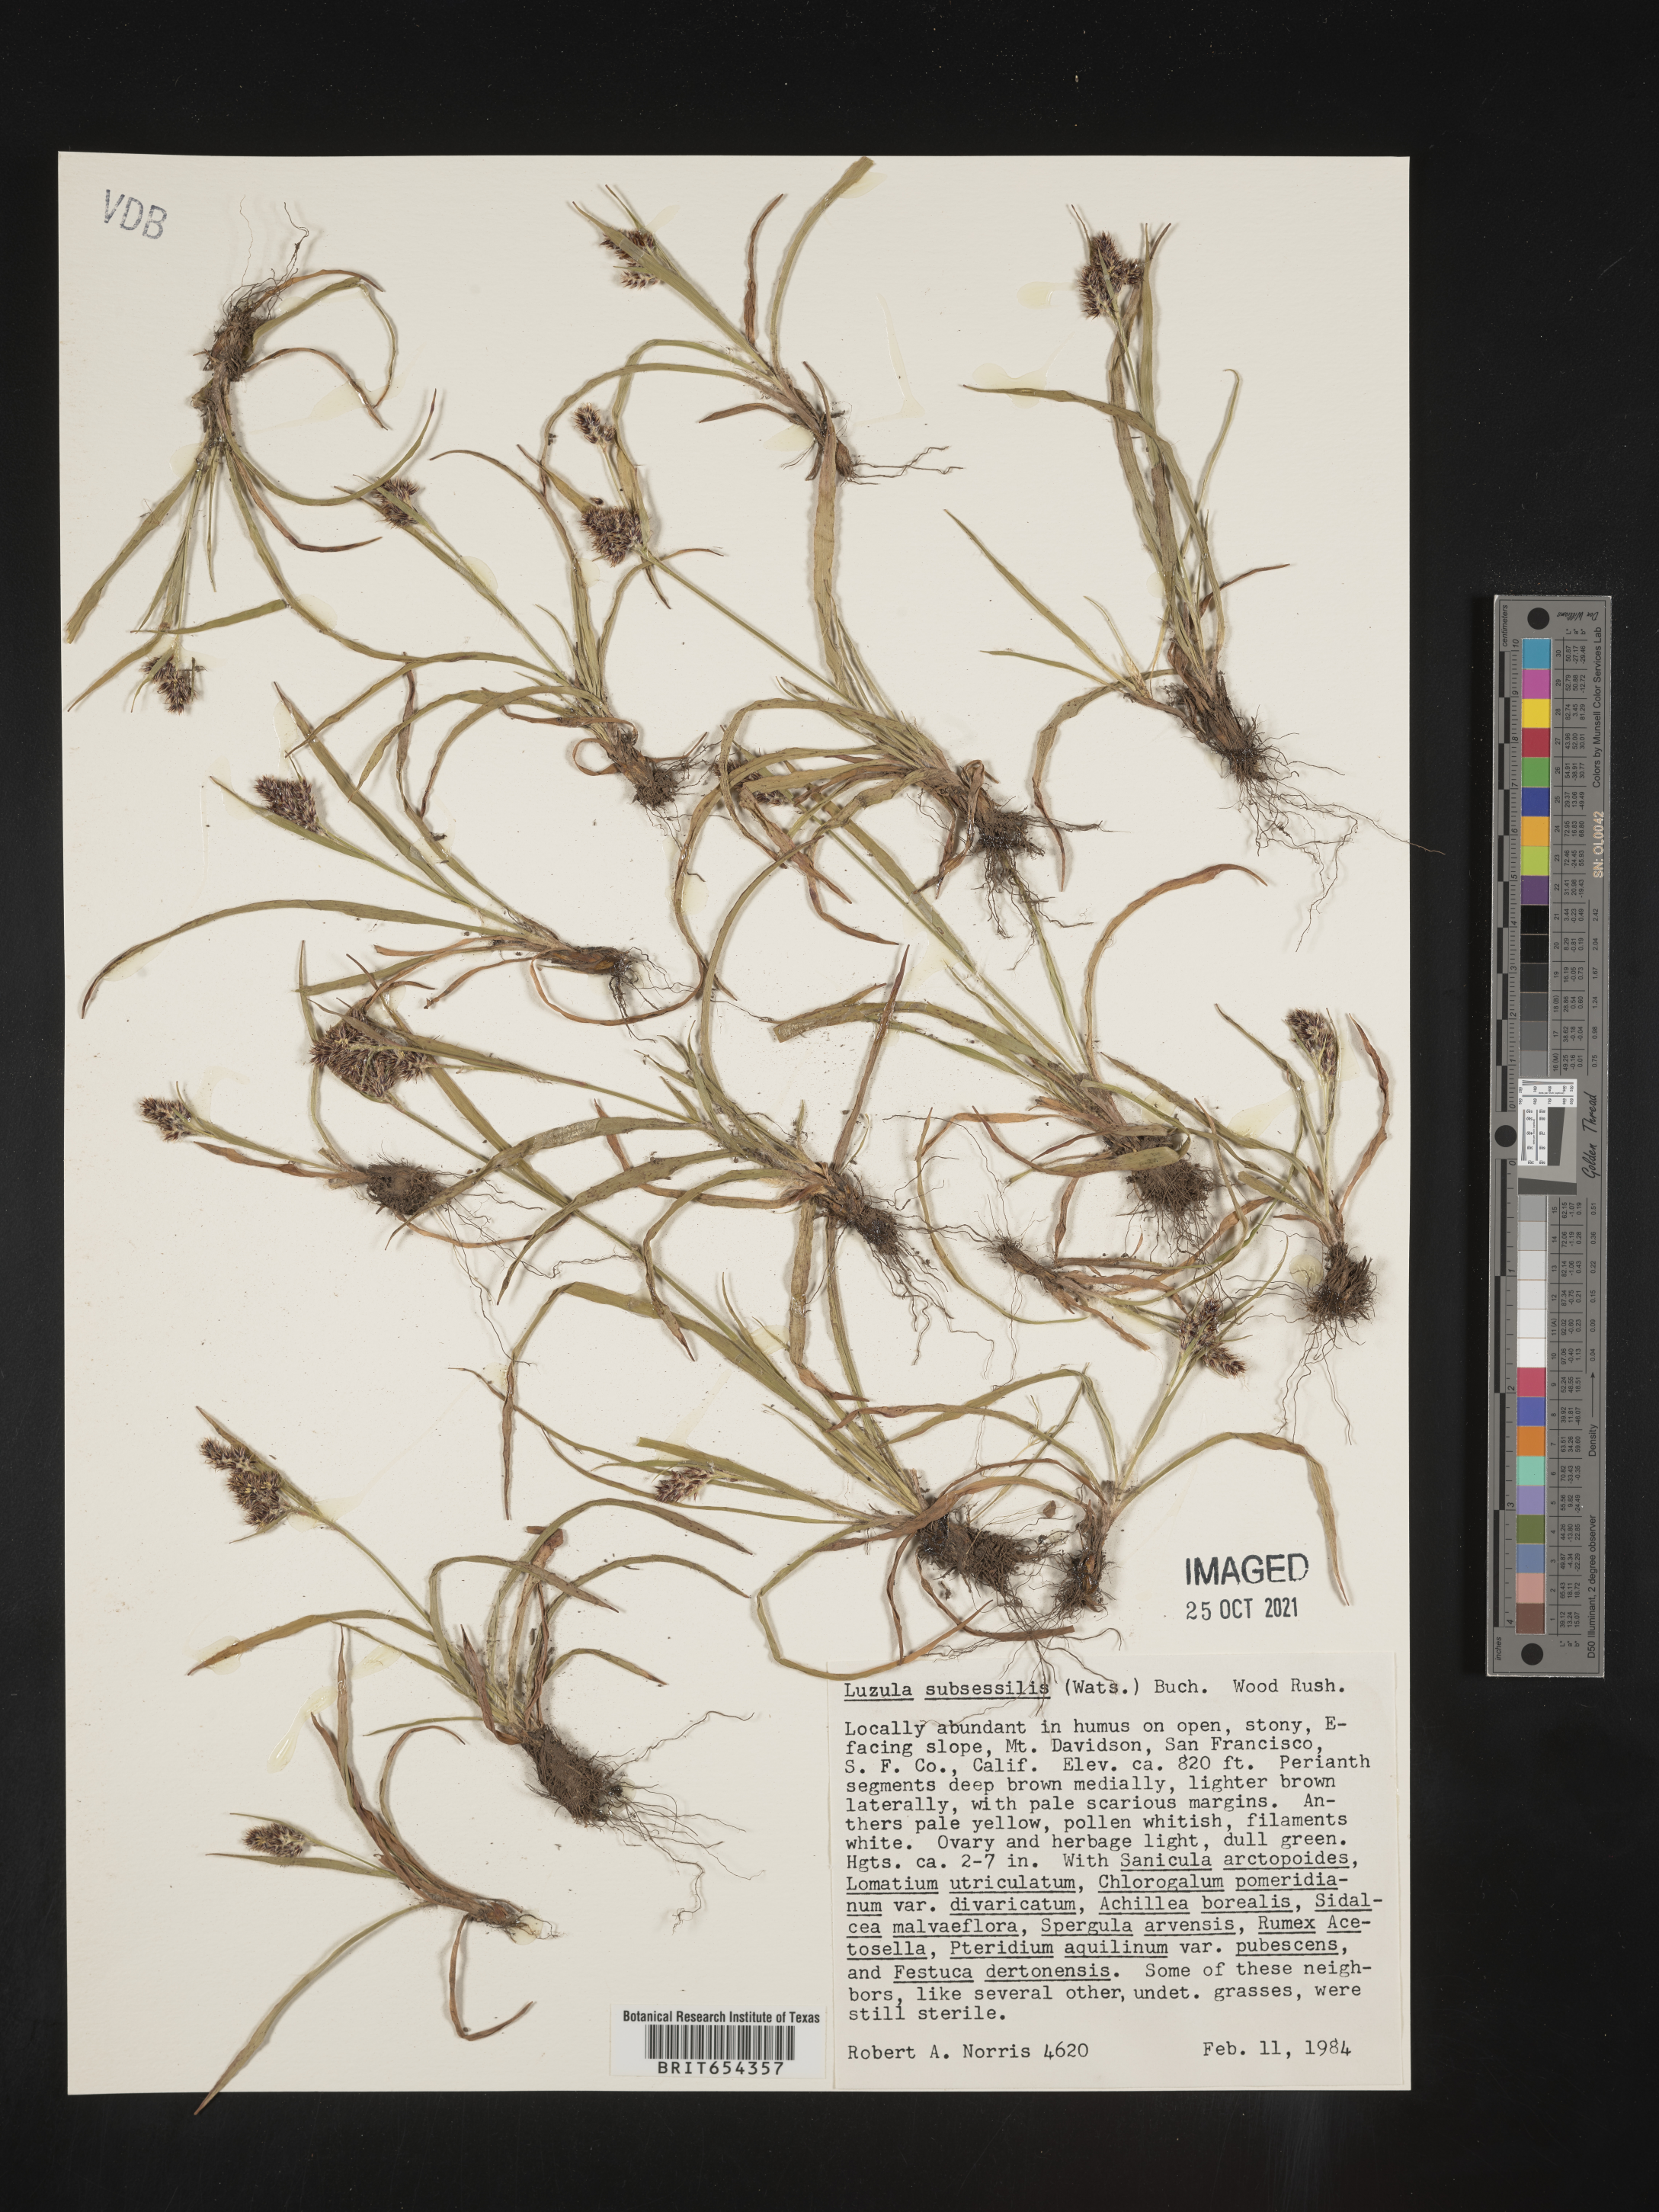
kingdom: Plantae
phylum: Tracheophyta
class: Liliopsida
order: Poales
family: Juncaceae
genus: Luzula
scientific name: Luzula
